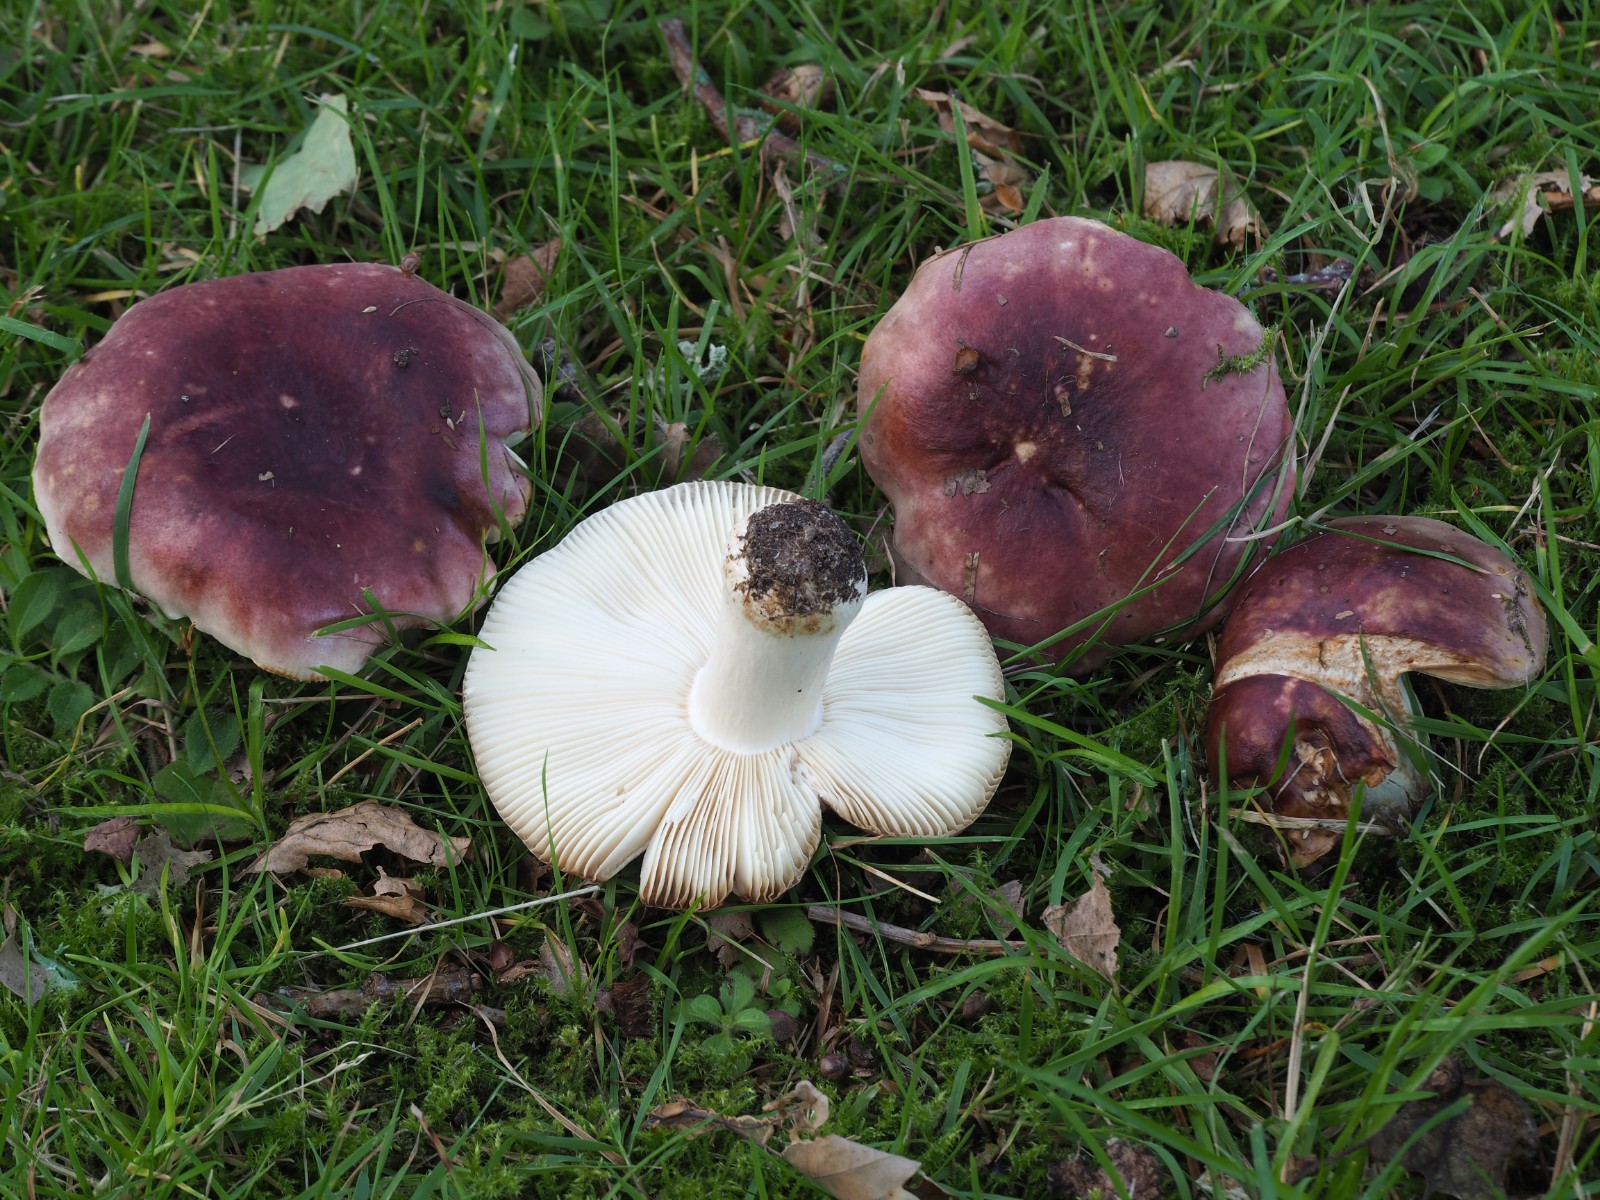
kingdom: Fungi
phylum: Basidiomycota
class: Agaricomycetes
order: Russulales
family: Russulaceae
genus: Russula
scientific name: Russula atropurpurea
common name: purpurbroget skørhat
